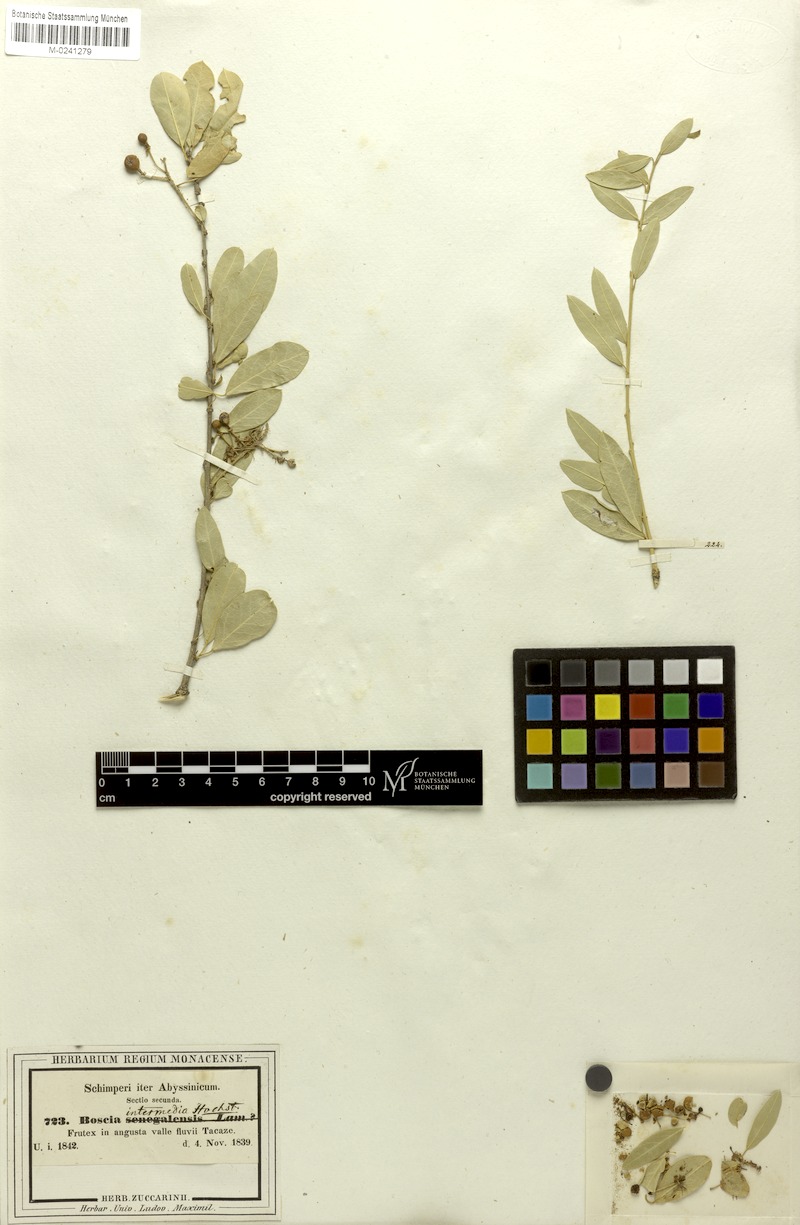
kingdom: Plantae
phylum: Tracheophyta
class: Magnoliopsida
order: Brassicales
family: Capparaceae
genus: Boscia
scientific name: Boscia angustifolia
